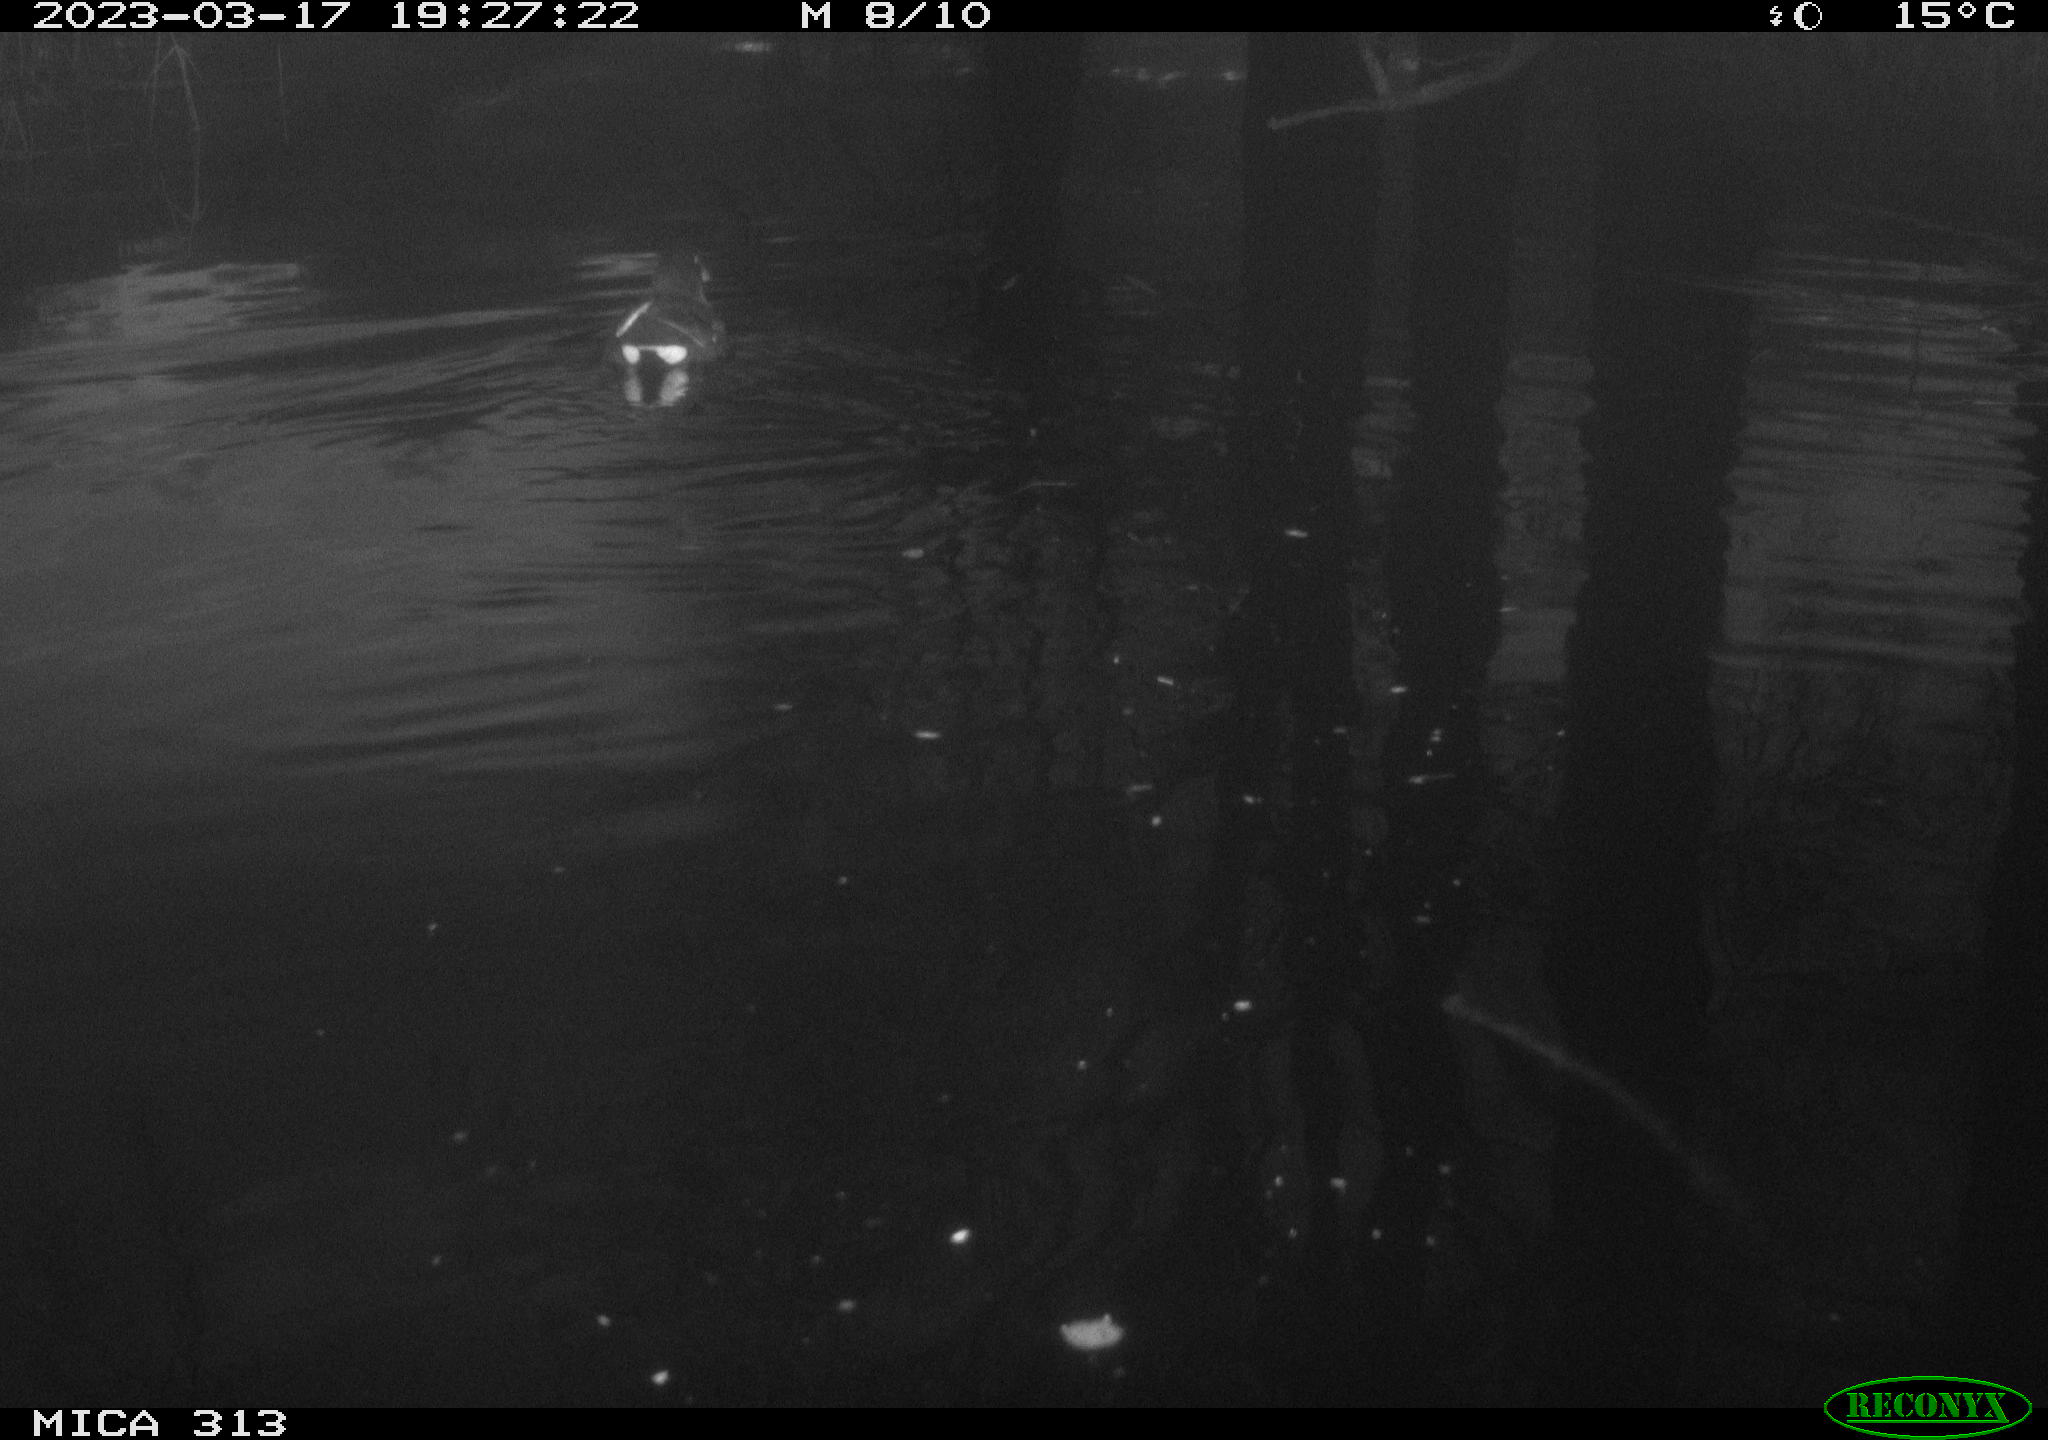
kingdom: Animalia
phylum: Chordata
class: Aves
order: Gruiformes
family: Rallidae
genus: Gallinula
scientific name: Gallinula chloropus
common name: Common moorhen
